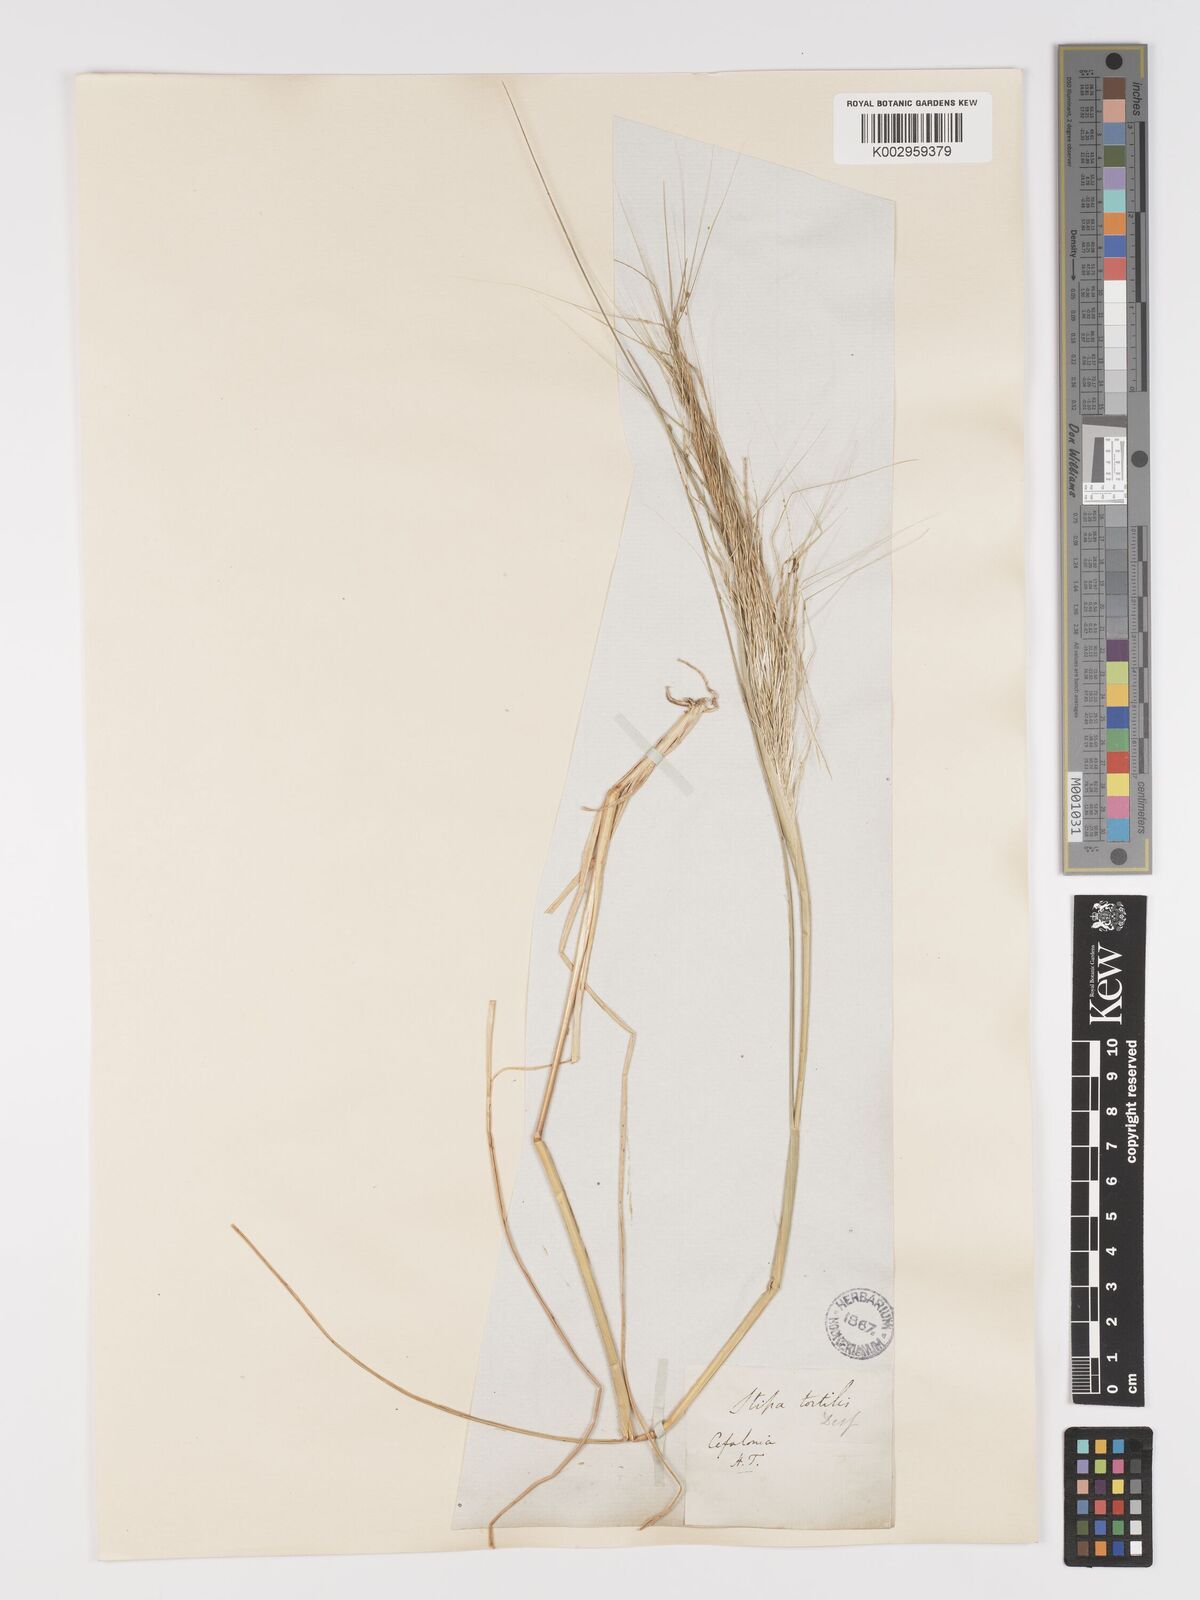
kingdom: Plantae
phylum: Tracheophyta
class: Liliopsida
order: Poales
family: Poaceae
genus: Stipellula
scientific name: Stipellula capensis
